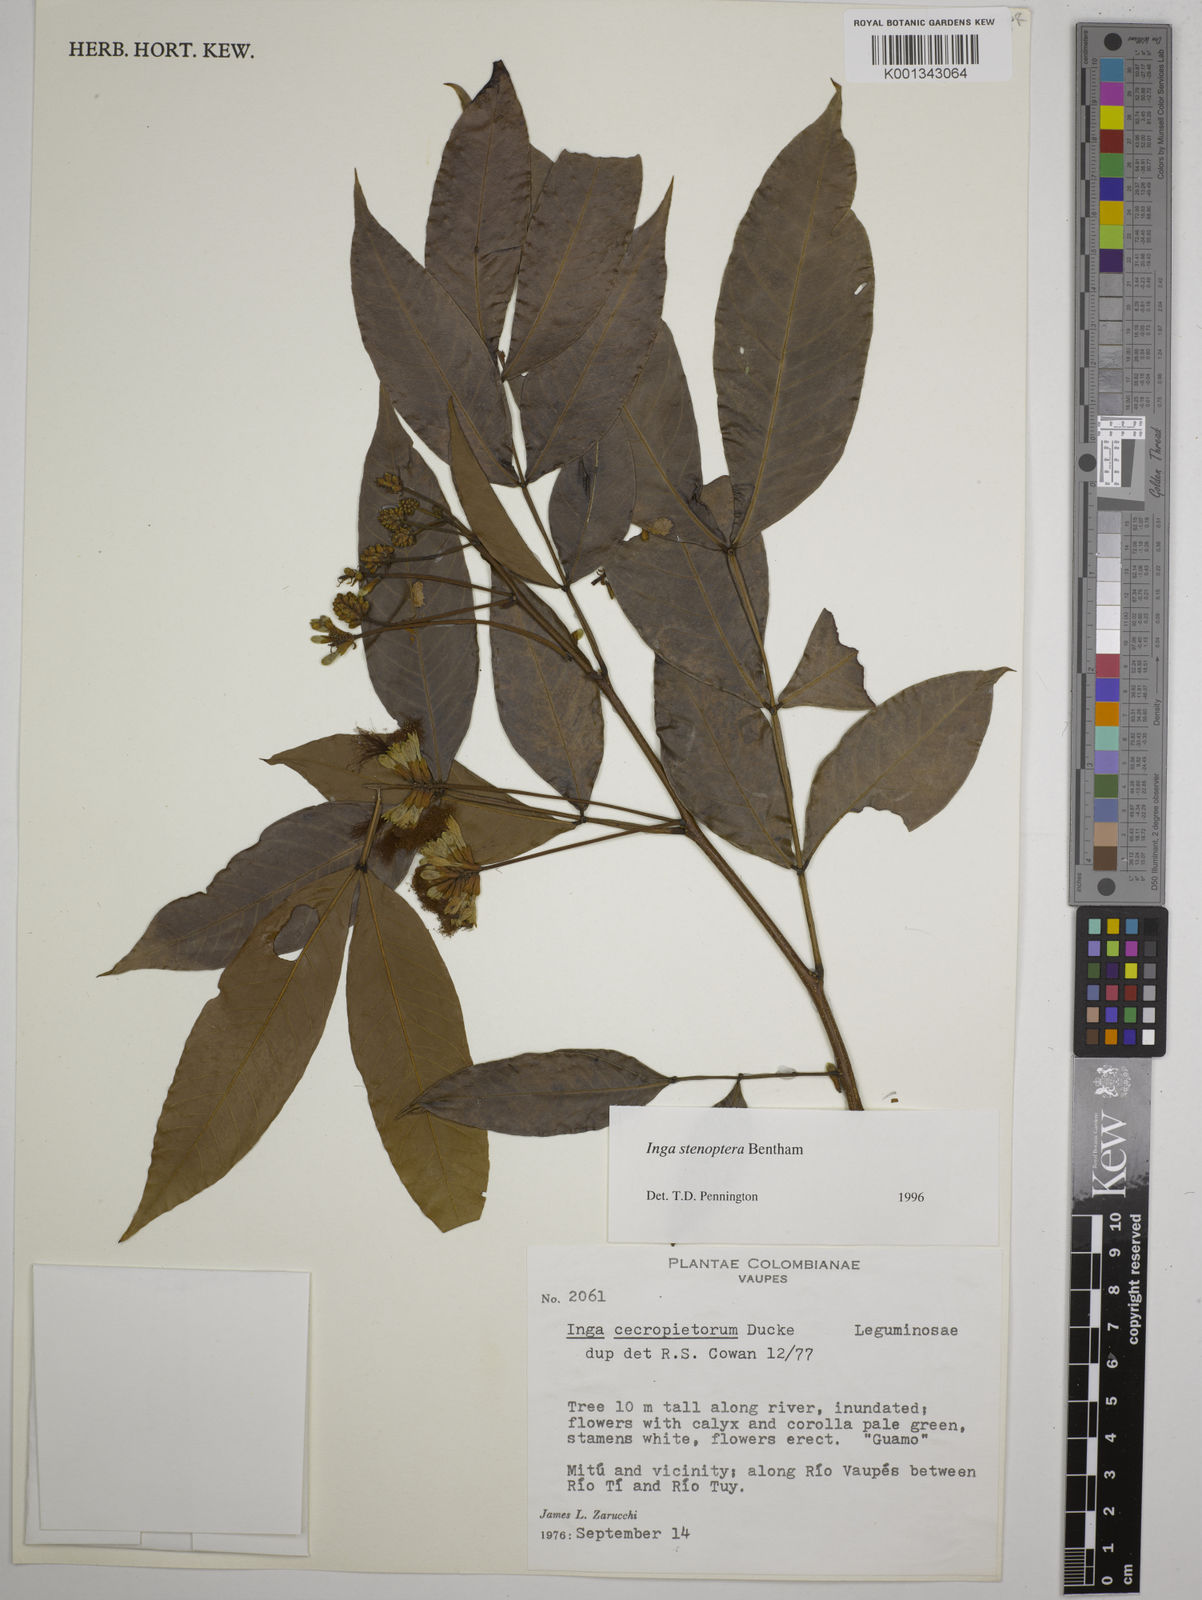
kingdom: Plantae
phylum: Tracheophyta
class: Magnoliopsida
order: Fabales
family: Fabaceae
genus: Inga
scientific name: Inga stenoptera
